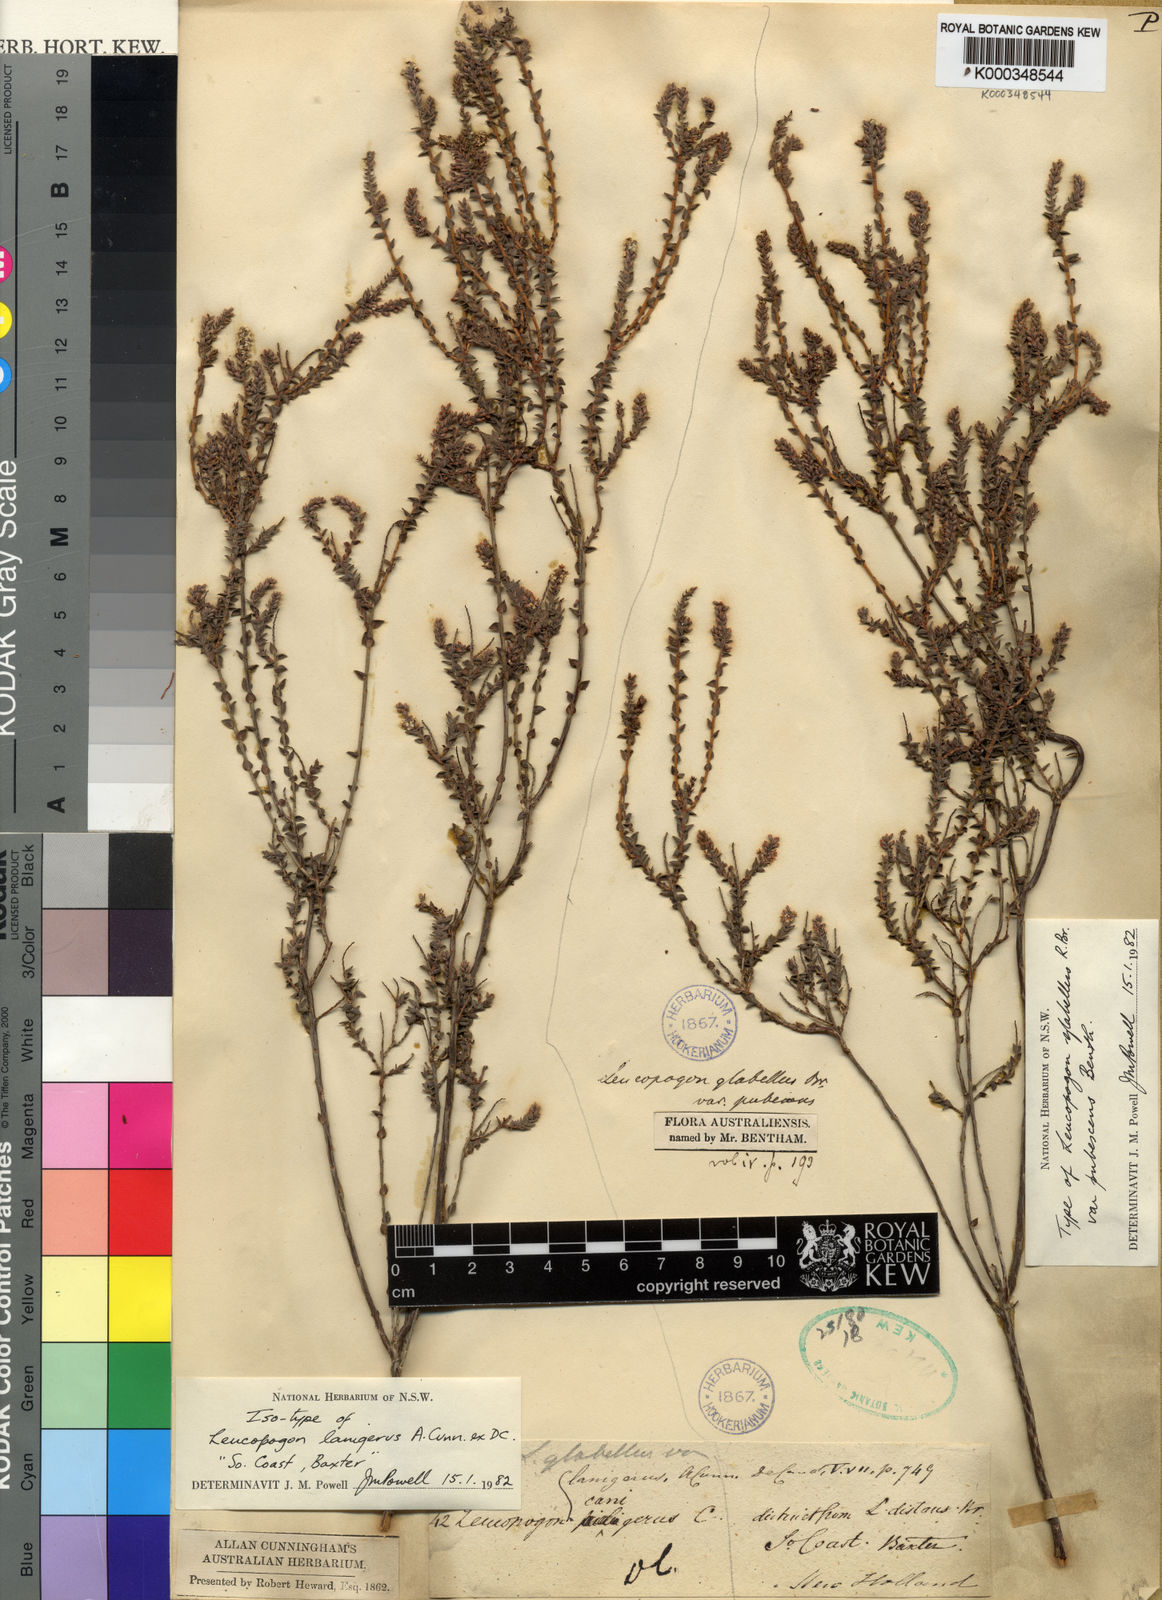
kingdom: Plantae
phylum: Tracheophyta
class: Magnoliopsida
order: Ericales
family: Ericaceae
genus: Leucopogon
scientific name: Leucopogon glabellus
